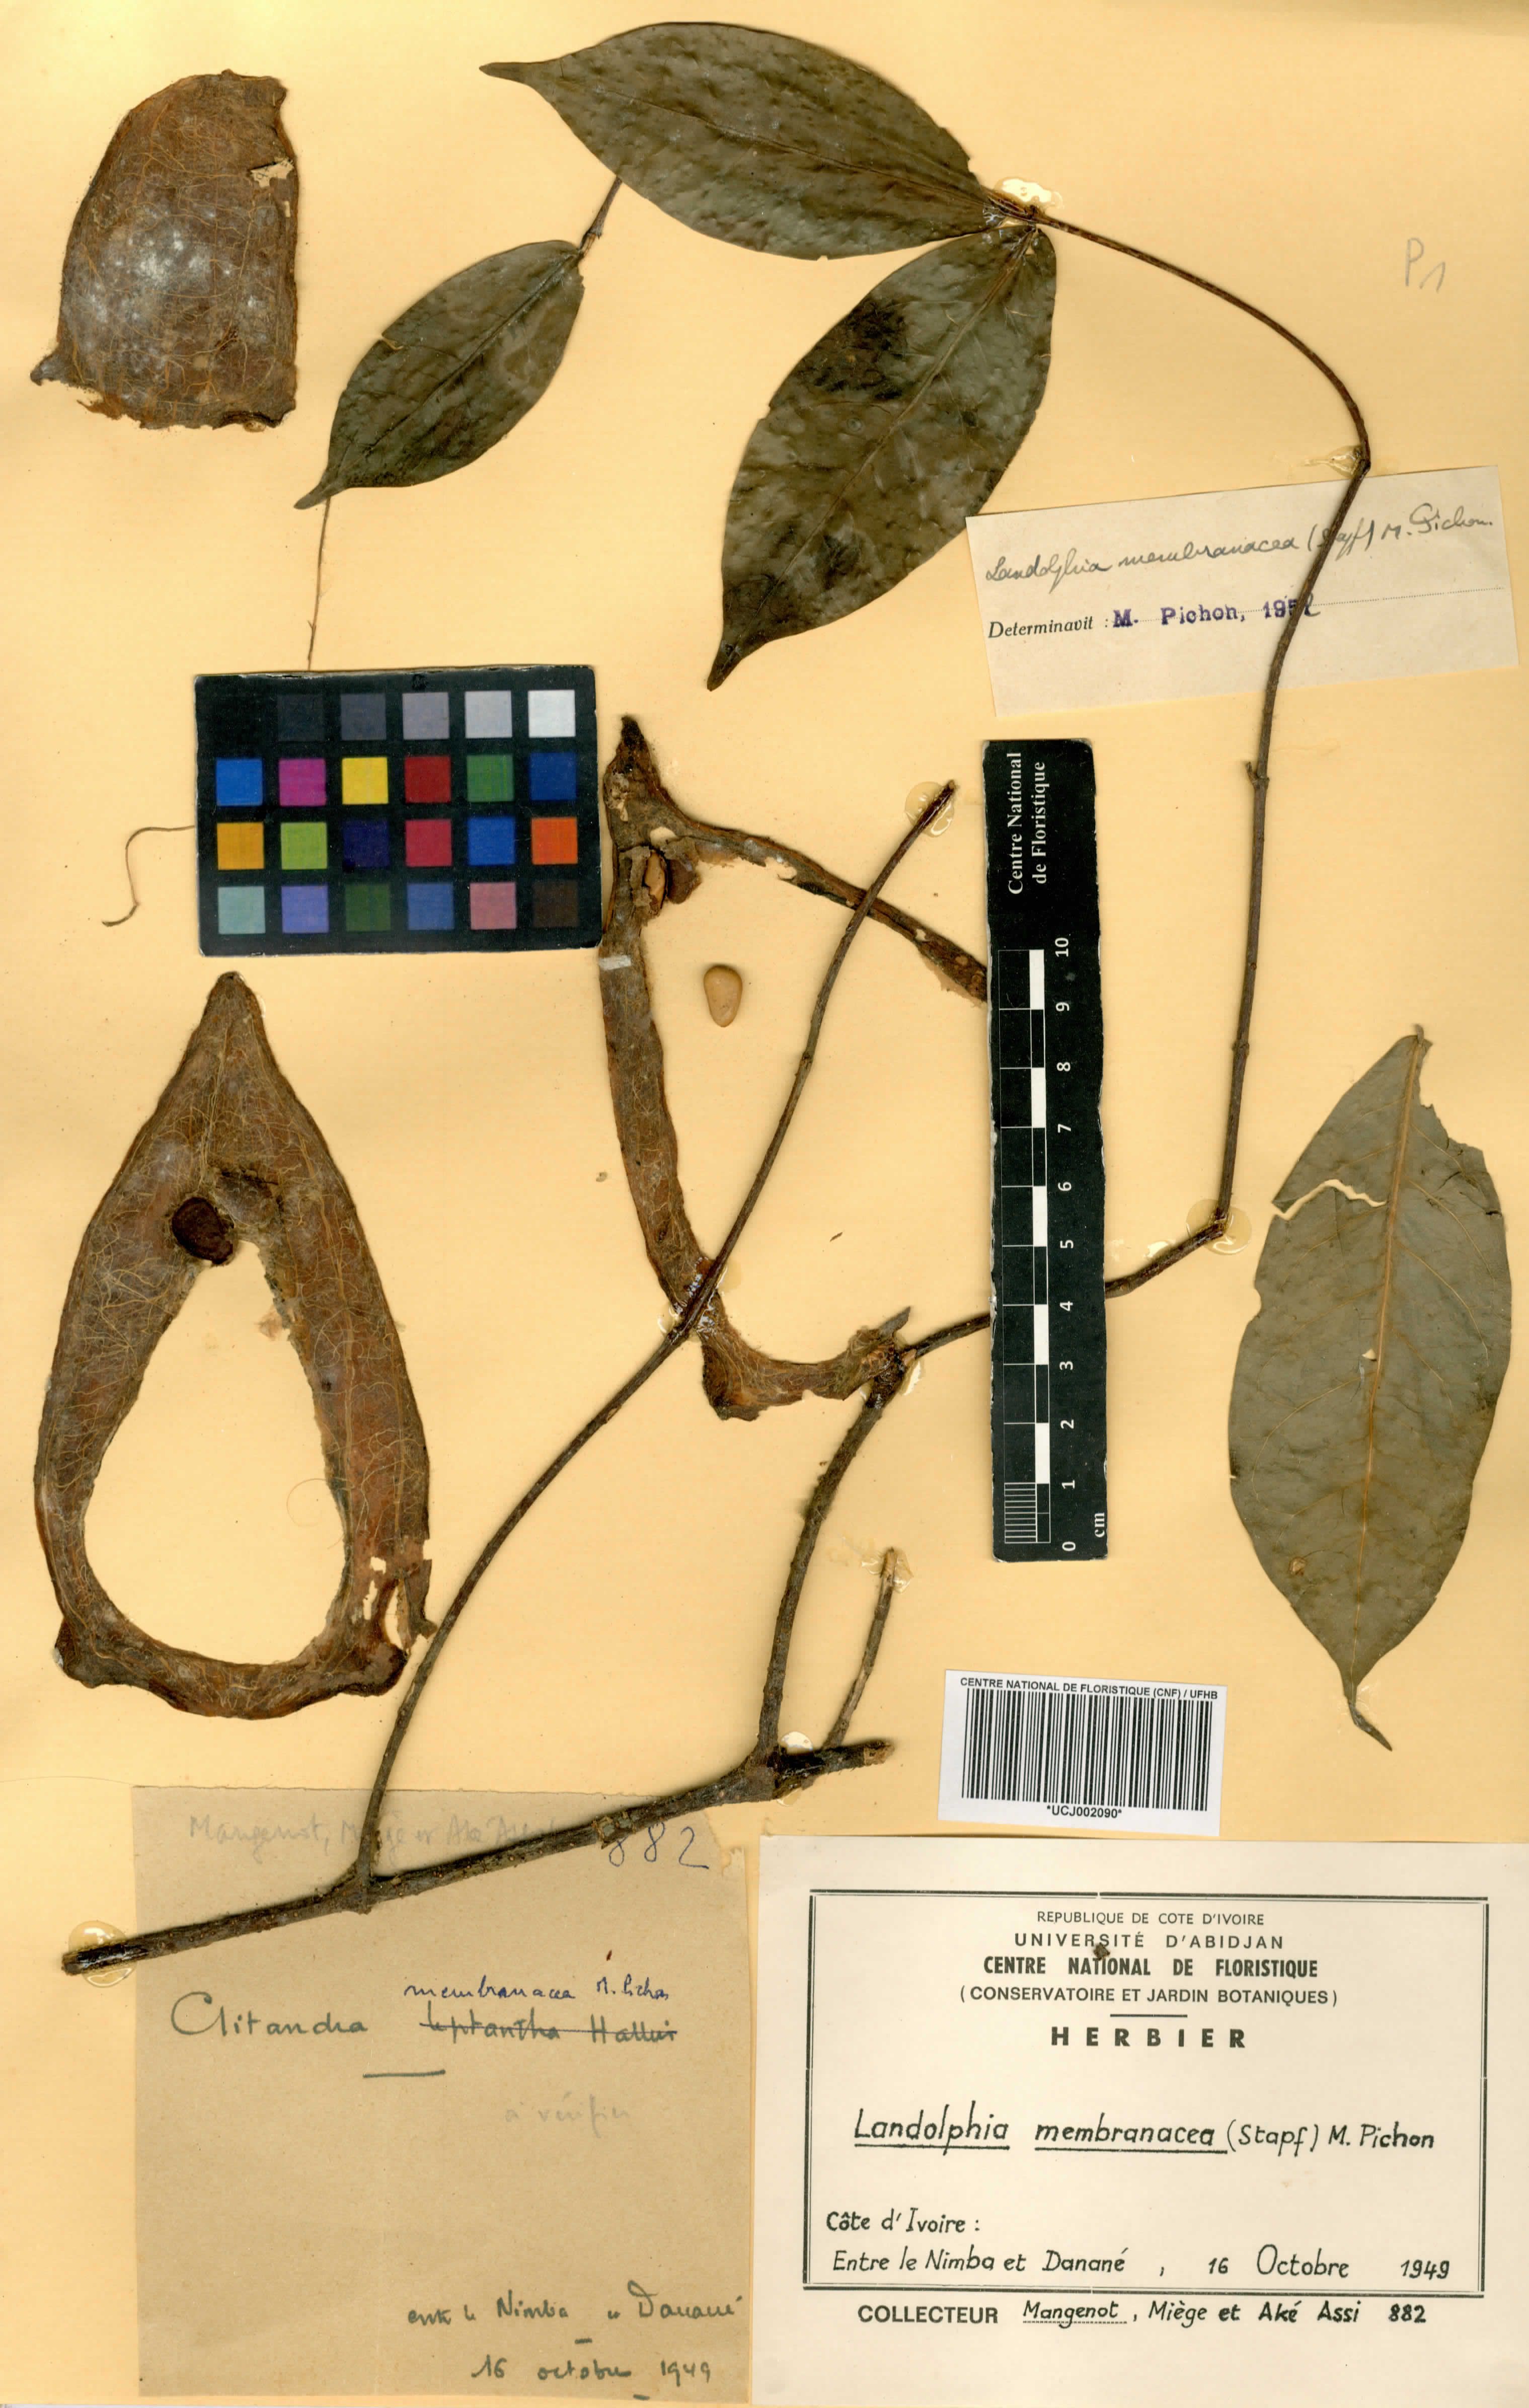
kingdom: Plantae
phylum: Tracheophyta
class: Magnoliopsida
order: Gentianales
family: Apocynaceae
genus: Landolphia
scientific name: Landolphia membranacea
